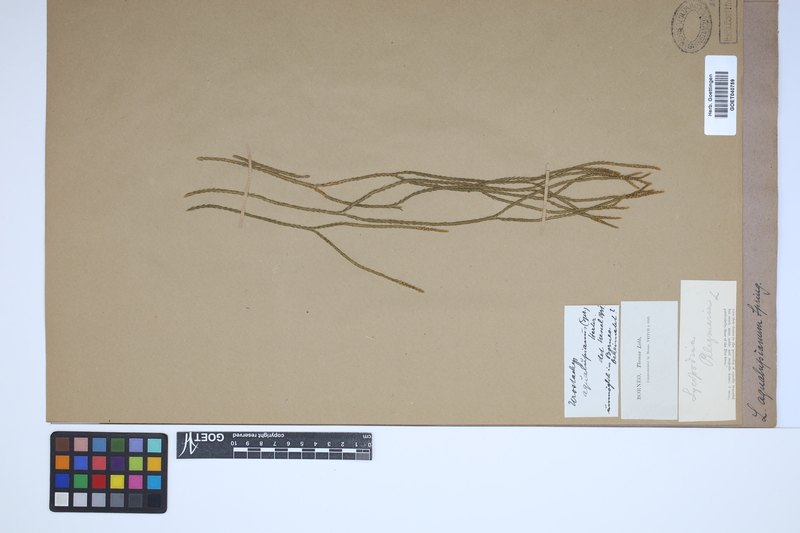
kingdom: Plantae
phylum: Tracheophyta
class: Lycopodiopsida
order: Lycopodiales
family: Lycopodiaceae
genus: Phlegmariurus
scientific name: Phlegmariurus aqualupianus
